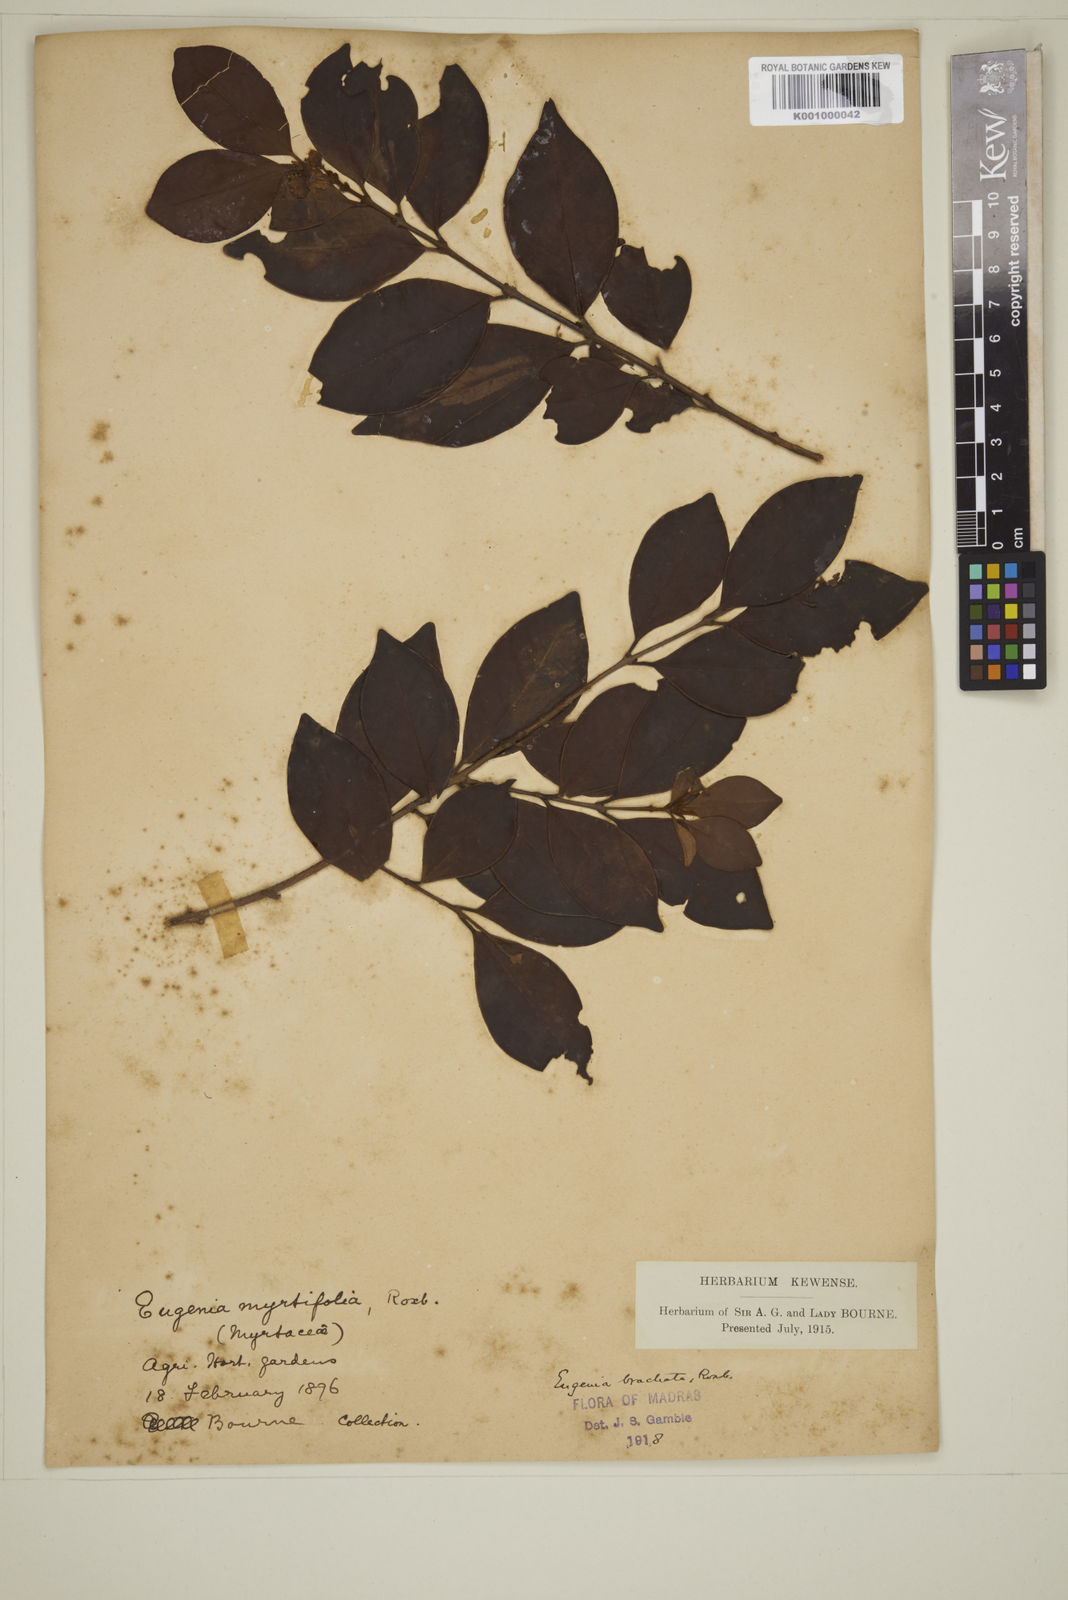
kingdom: Plantae
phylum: Tracheophyta
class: Magnoliopsida
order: Myrtales
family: Myrtaceae
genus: Myrcia
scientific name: Myrcia bracteata
